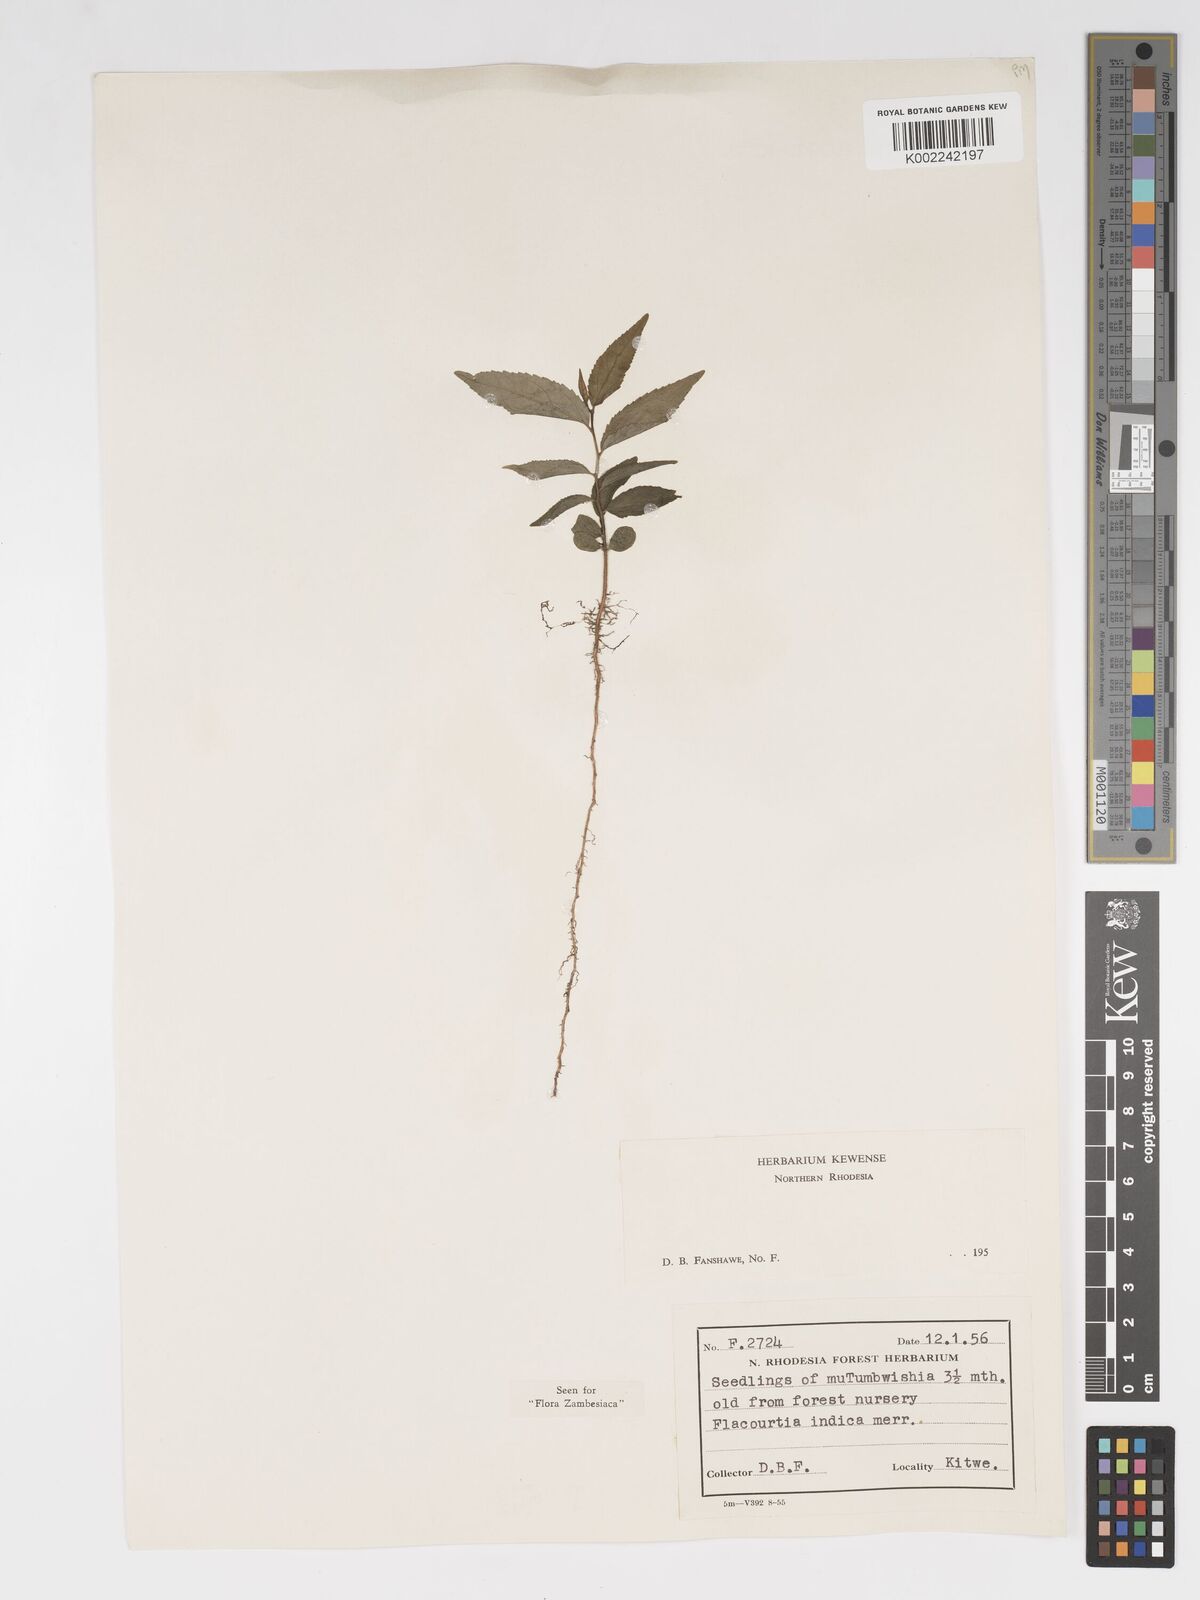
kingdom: Plantae
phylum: Tracheophyta
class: Magnoliopsida
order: Malpighiales
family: Salicaceae
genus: Flacourtia
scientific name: Flacourtia indica
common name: Governor's plum
